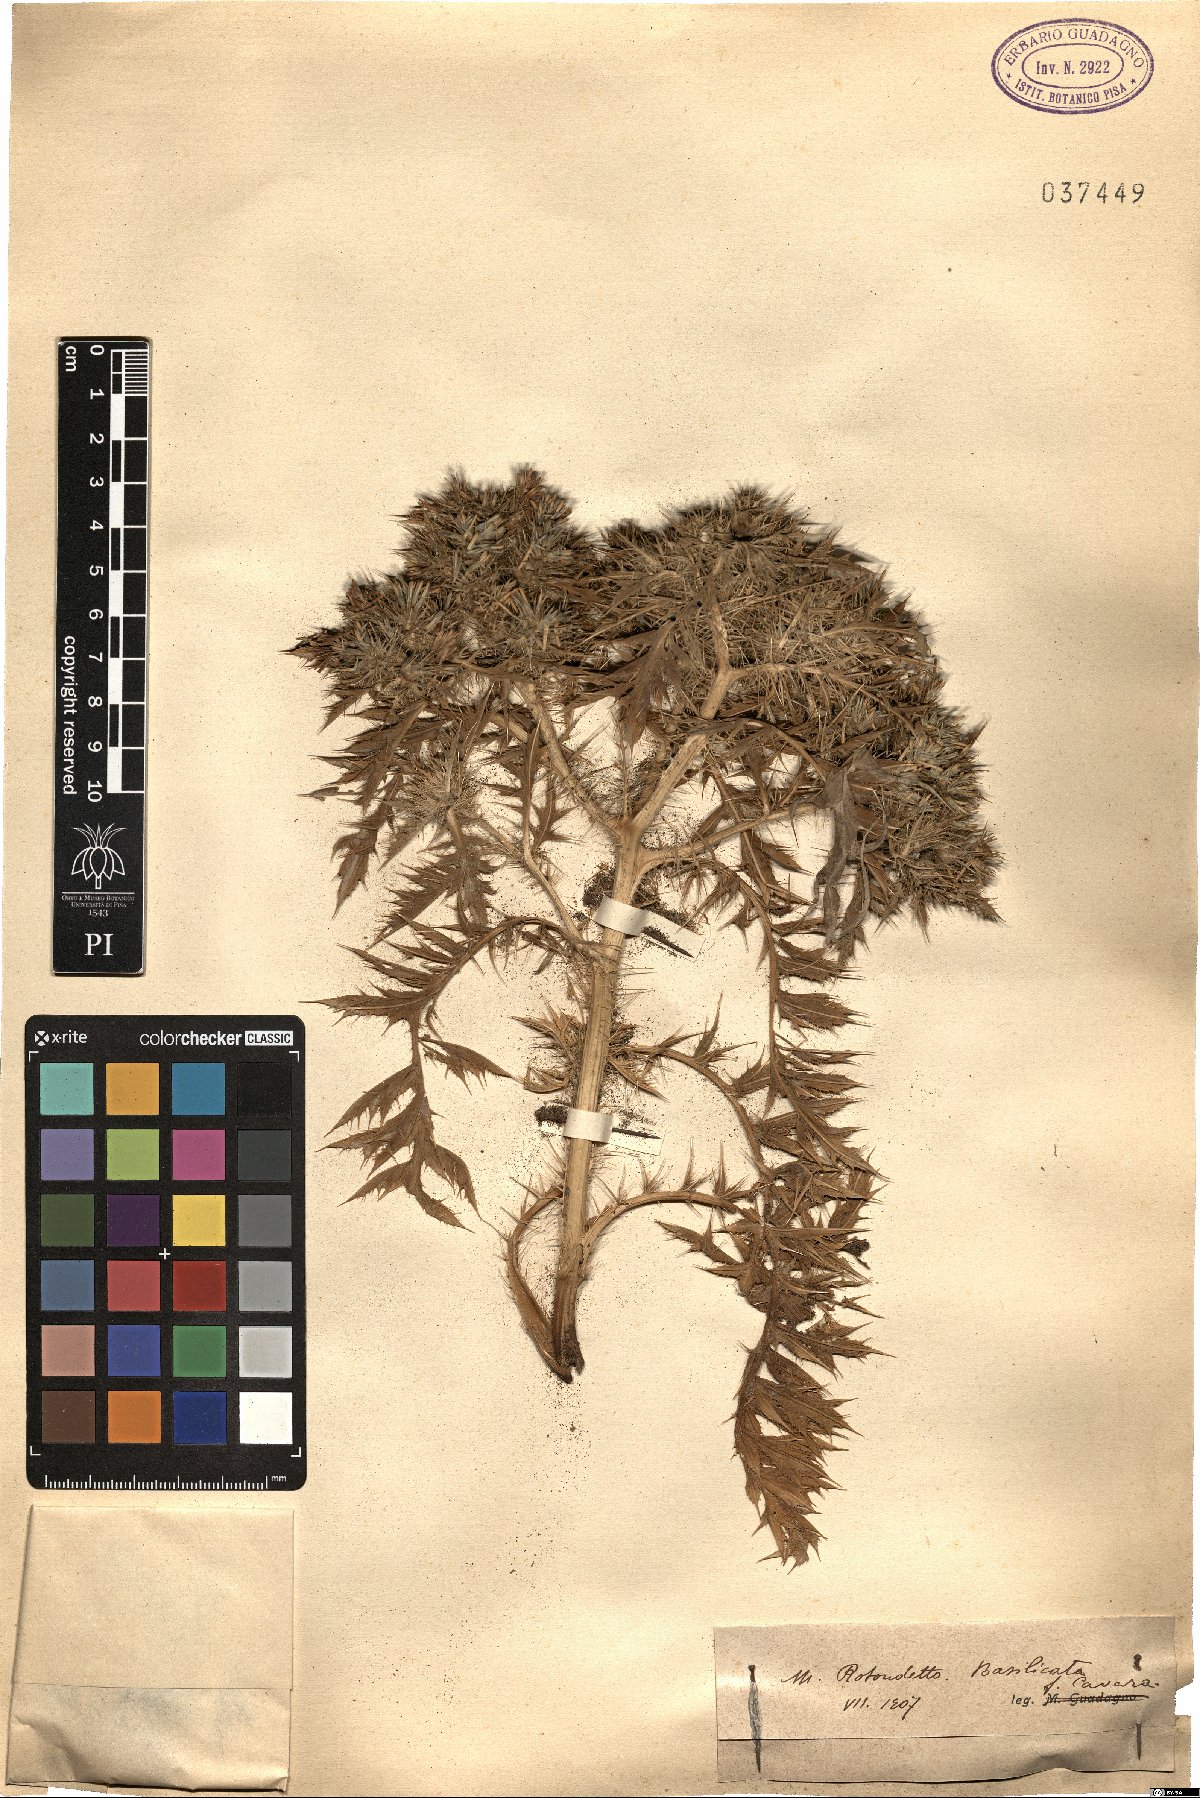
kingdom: Plantae
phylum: Tracheophyta
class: Magnoliopsida
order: Asterales
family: Asteraceae
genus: Cardopatium
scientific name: Cardopatium
